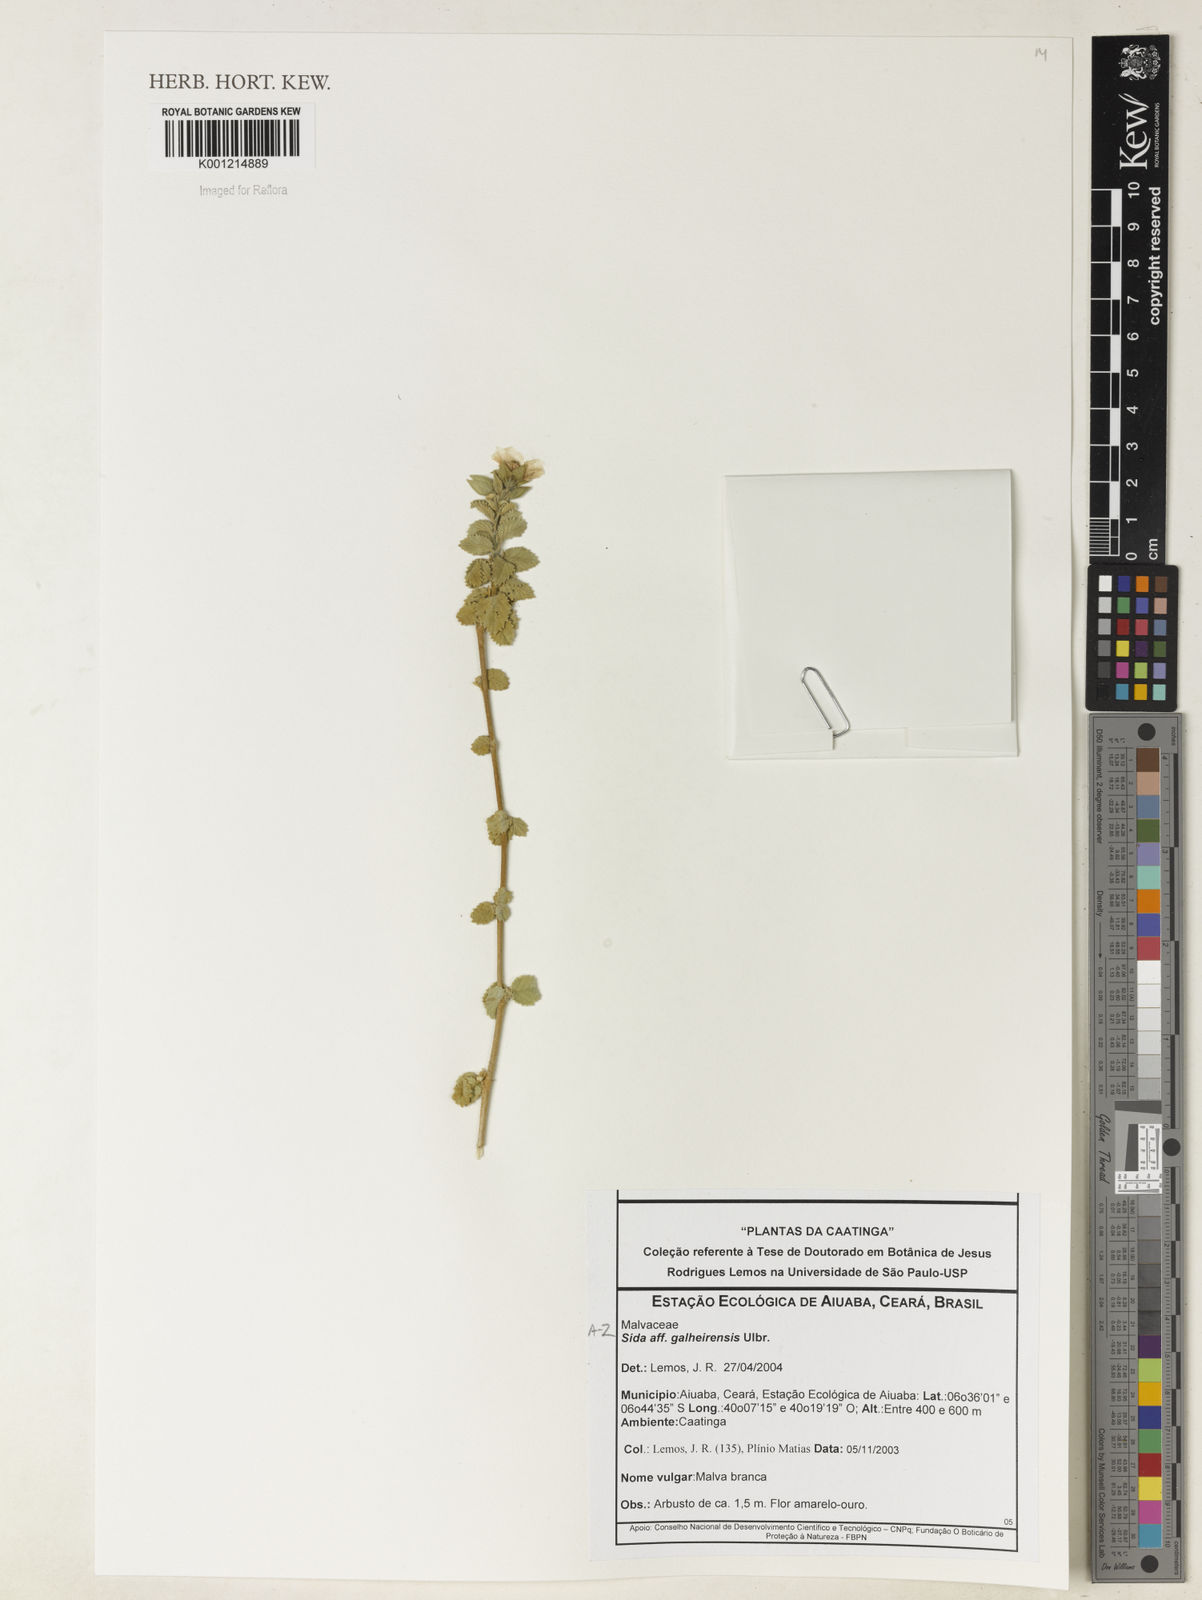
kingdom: Plantae
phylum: Tracheophyta
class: Magnoliopsida
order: Malvales
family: Malvaceae
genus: Sida
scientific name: Sida galheirensis
